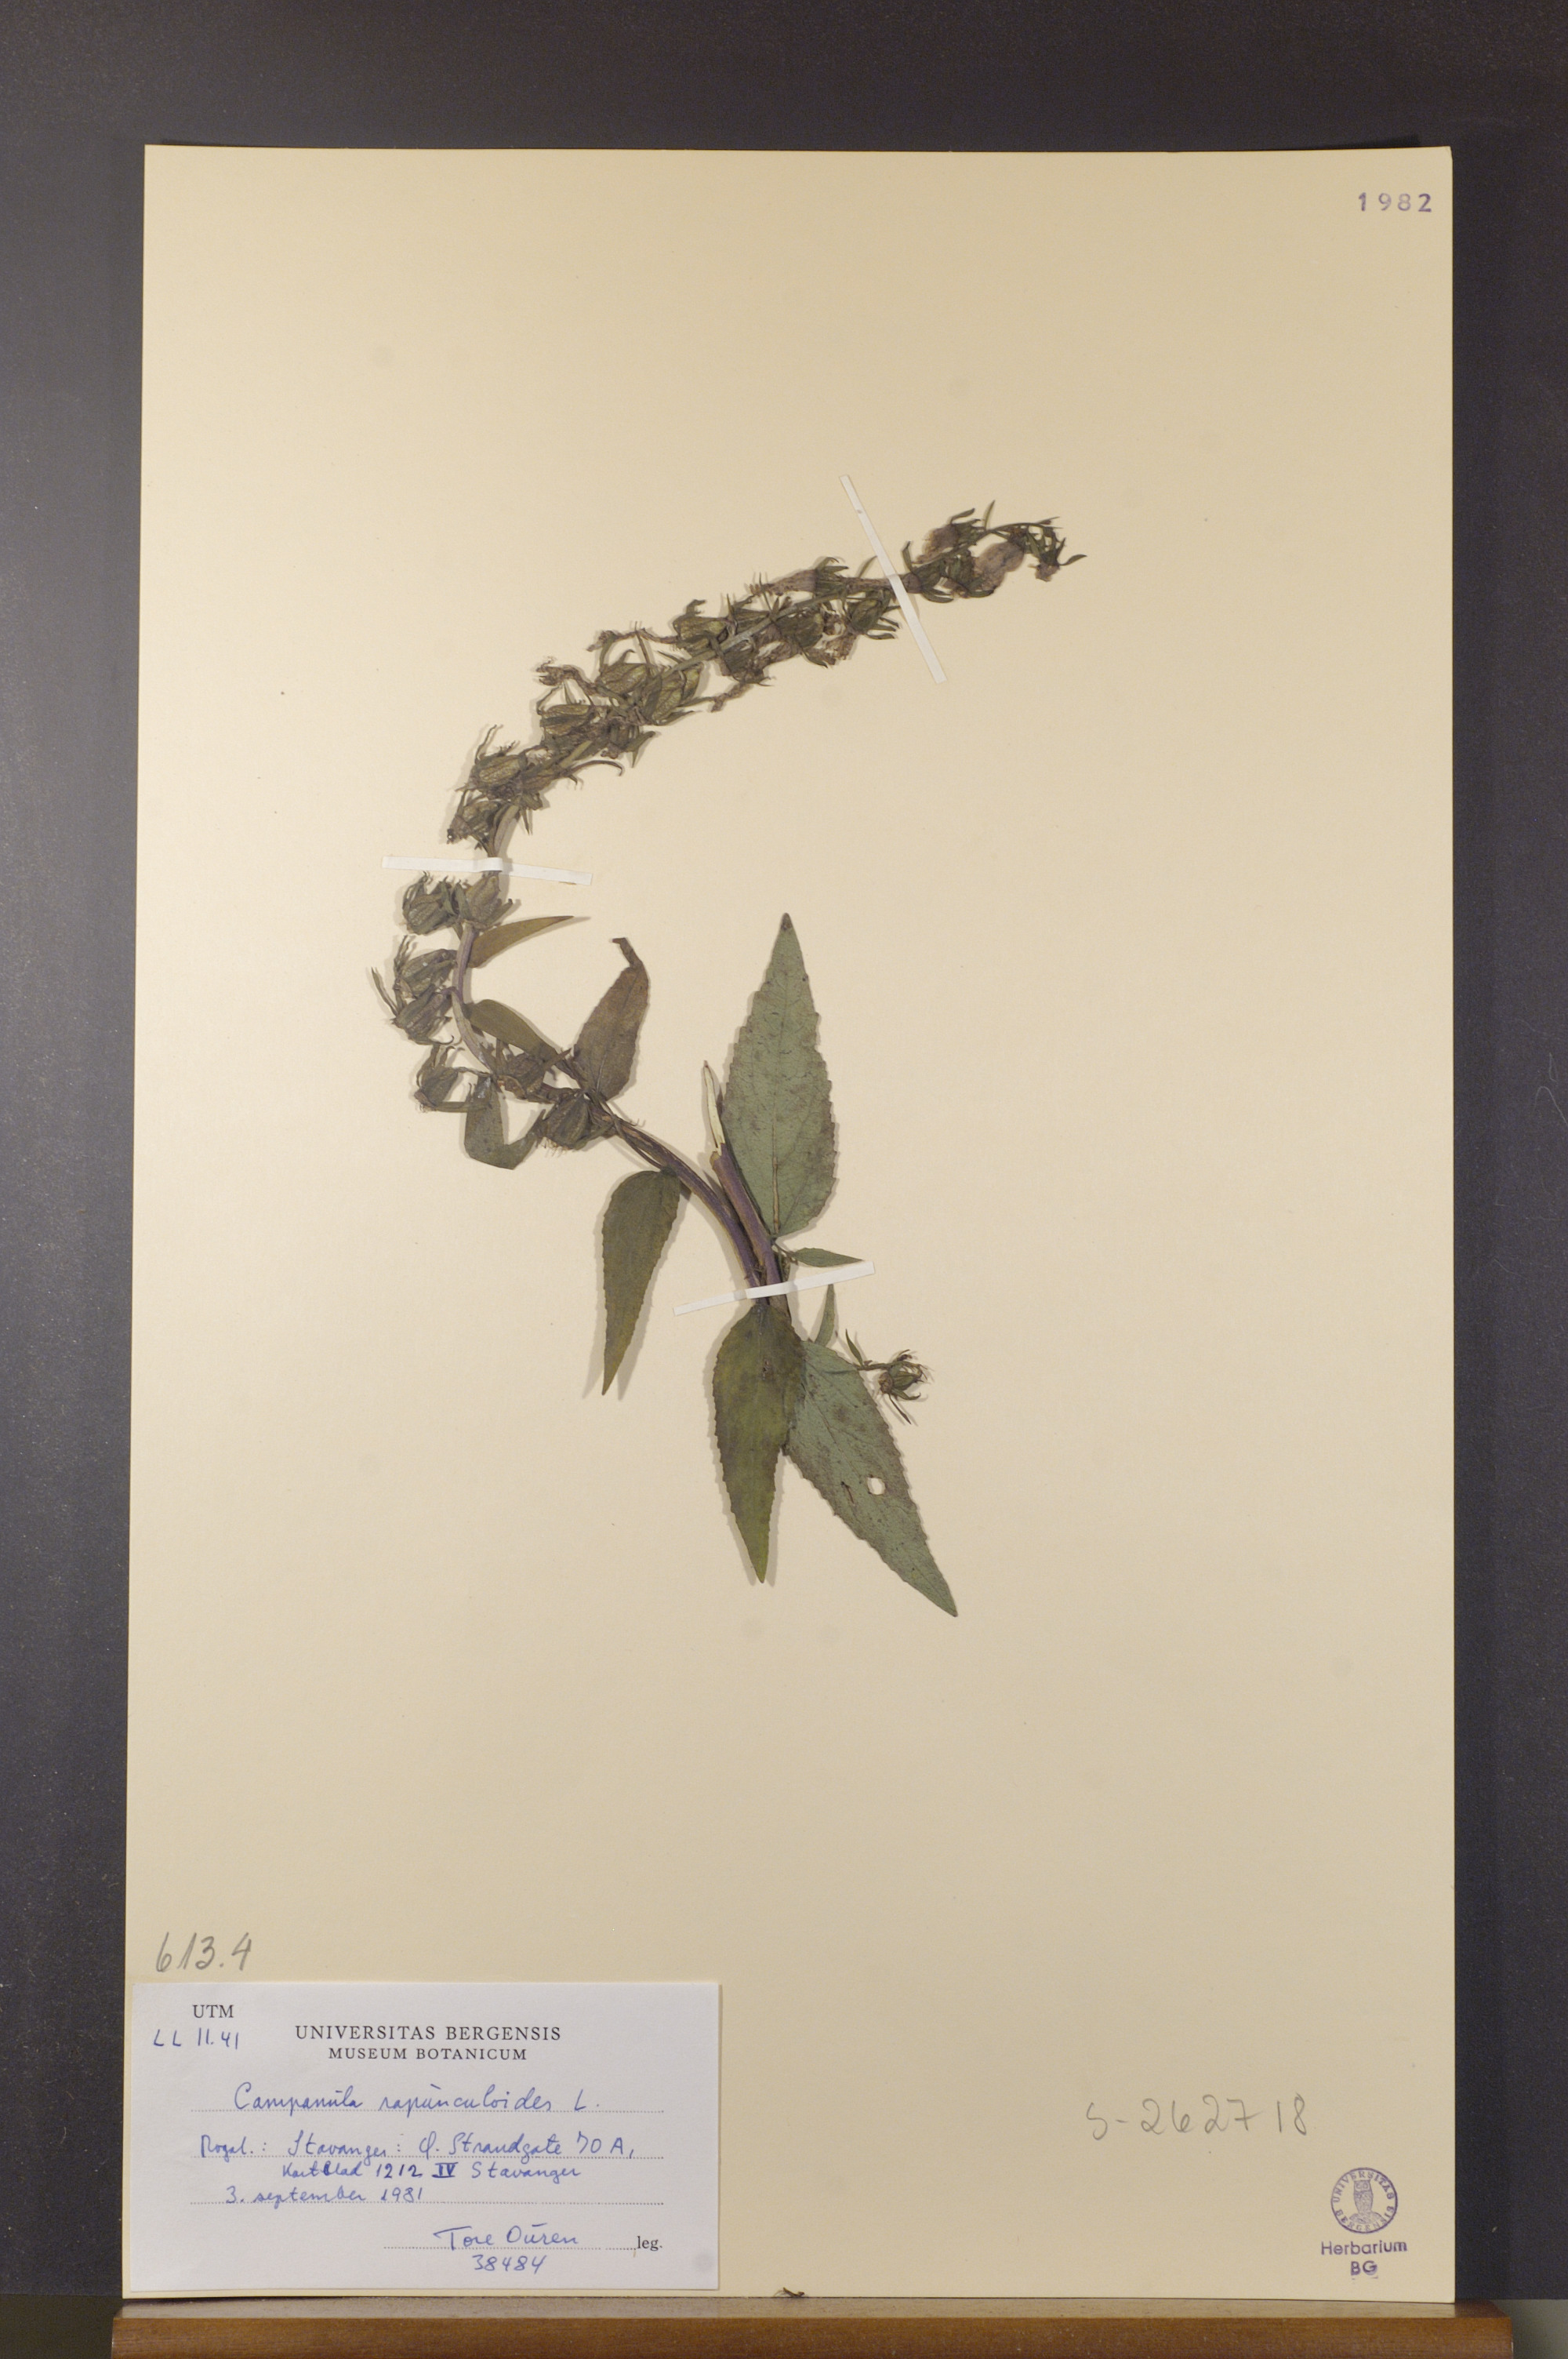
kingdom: Plantae
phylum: Tracheophyta
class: Magnoliopsida
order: Asterales
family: Campanulaceae
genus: Campanula
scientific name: Campanula rapunculoides
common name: Creeping bellflower
